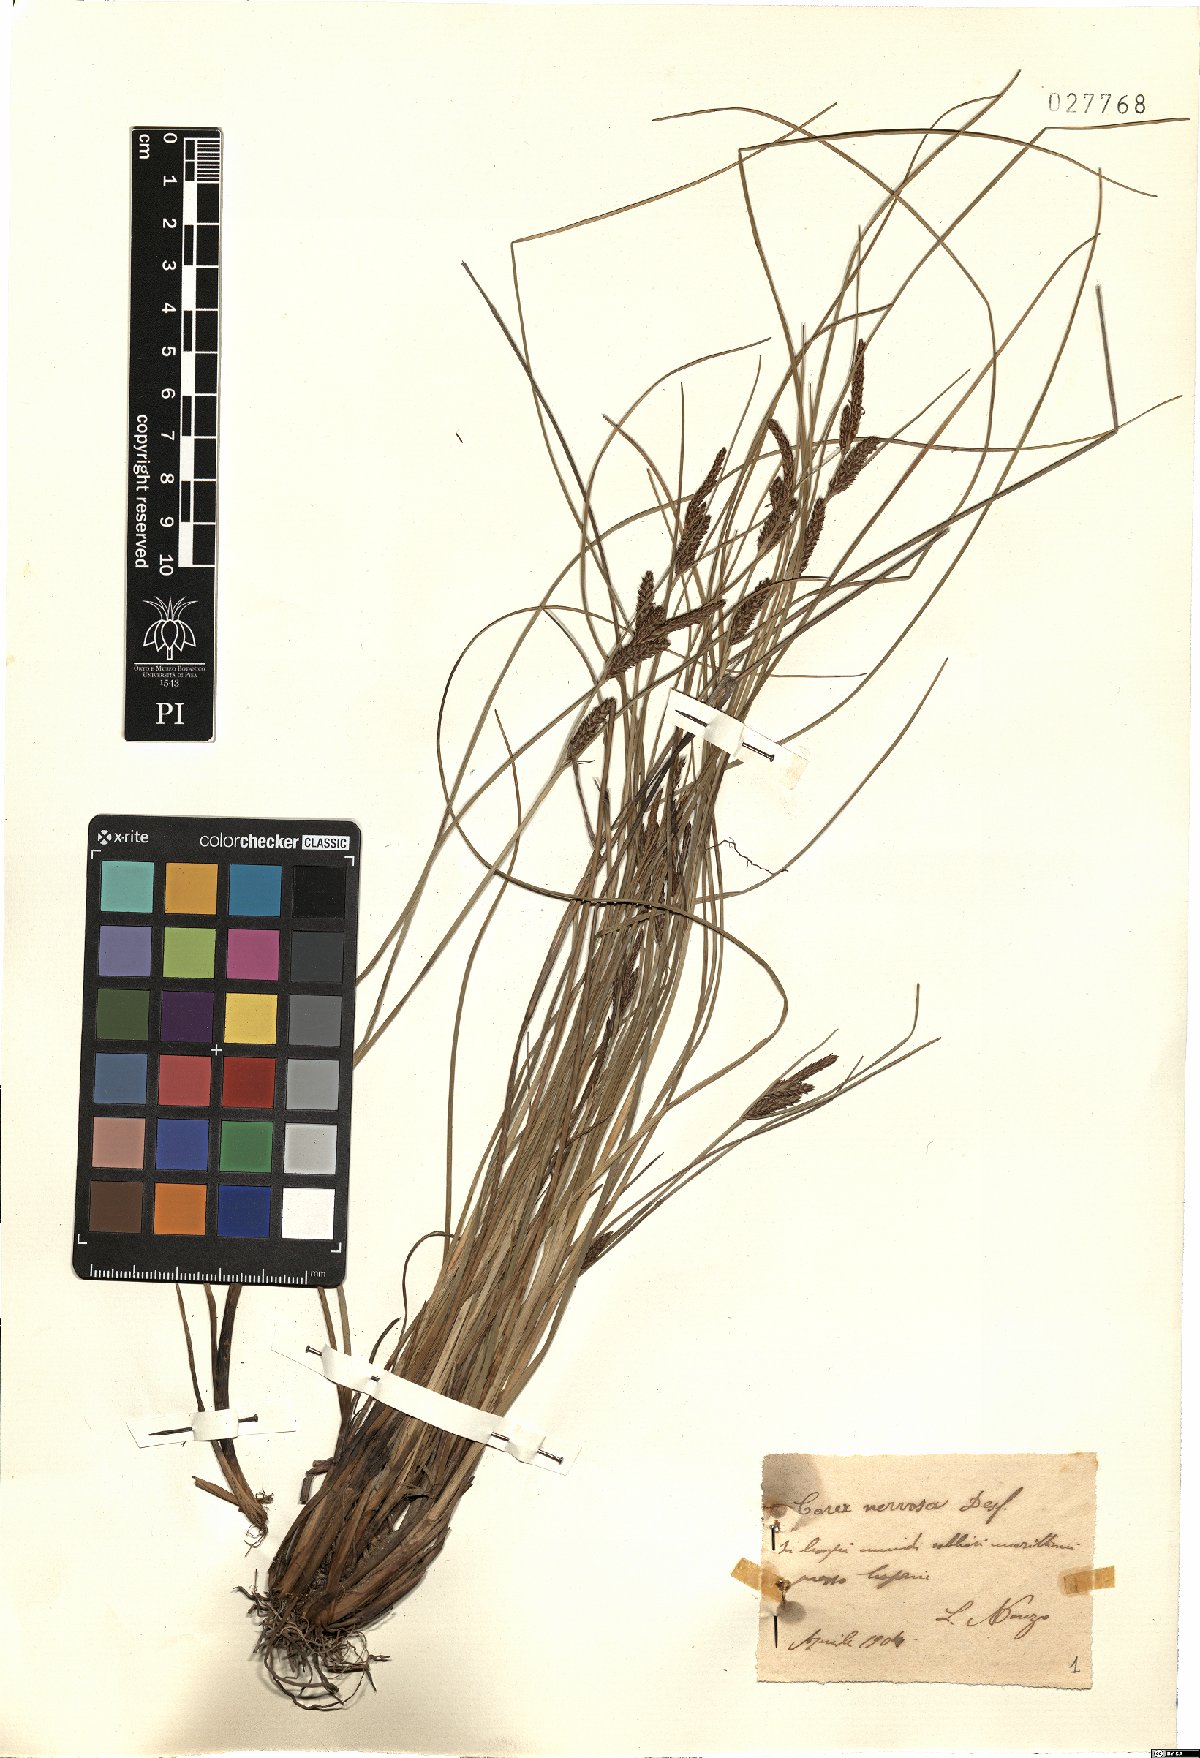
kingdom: Plantae
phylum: Tracheophyta
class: Liliopsida
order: Poales
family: Cyperaceae
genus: Carex
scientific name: Carex extensa
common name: Long-bracted sedge
